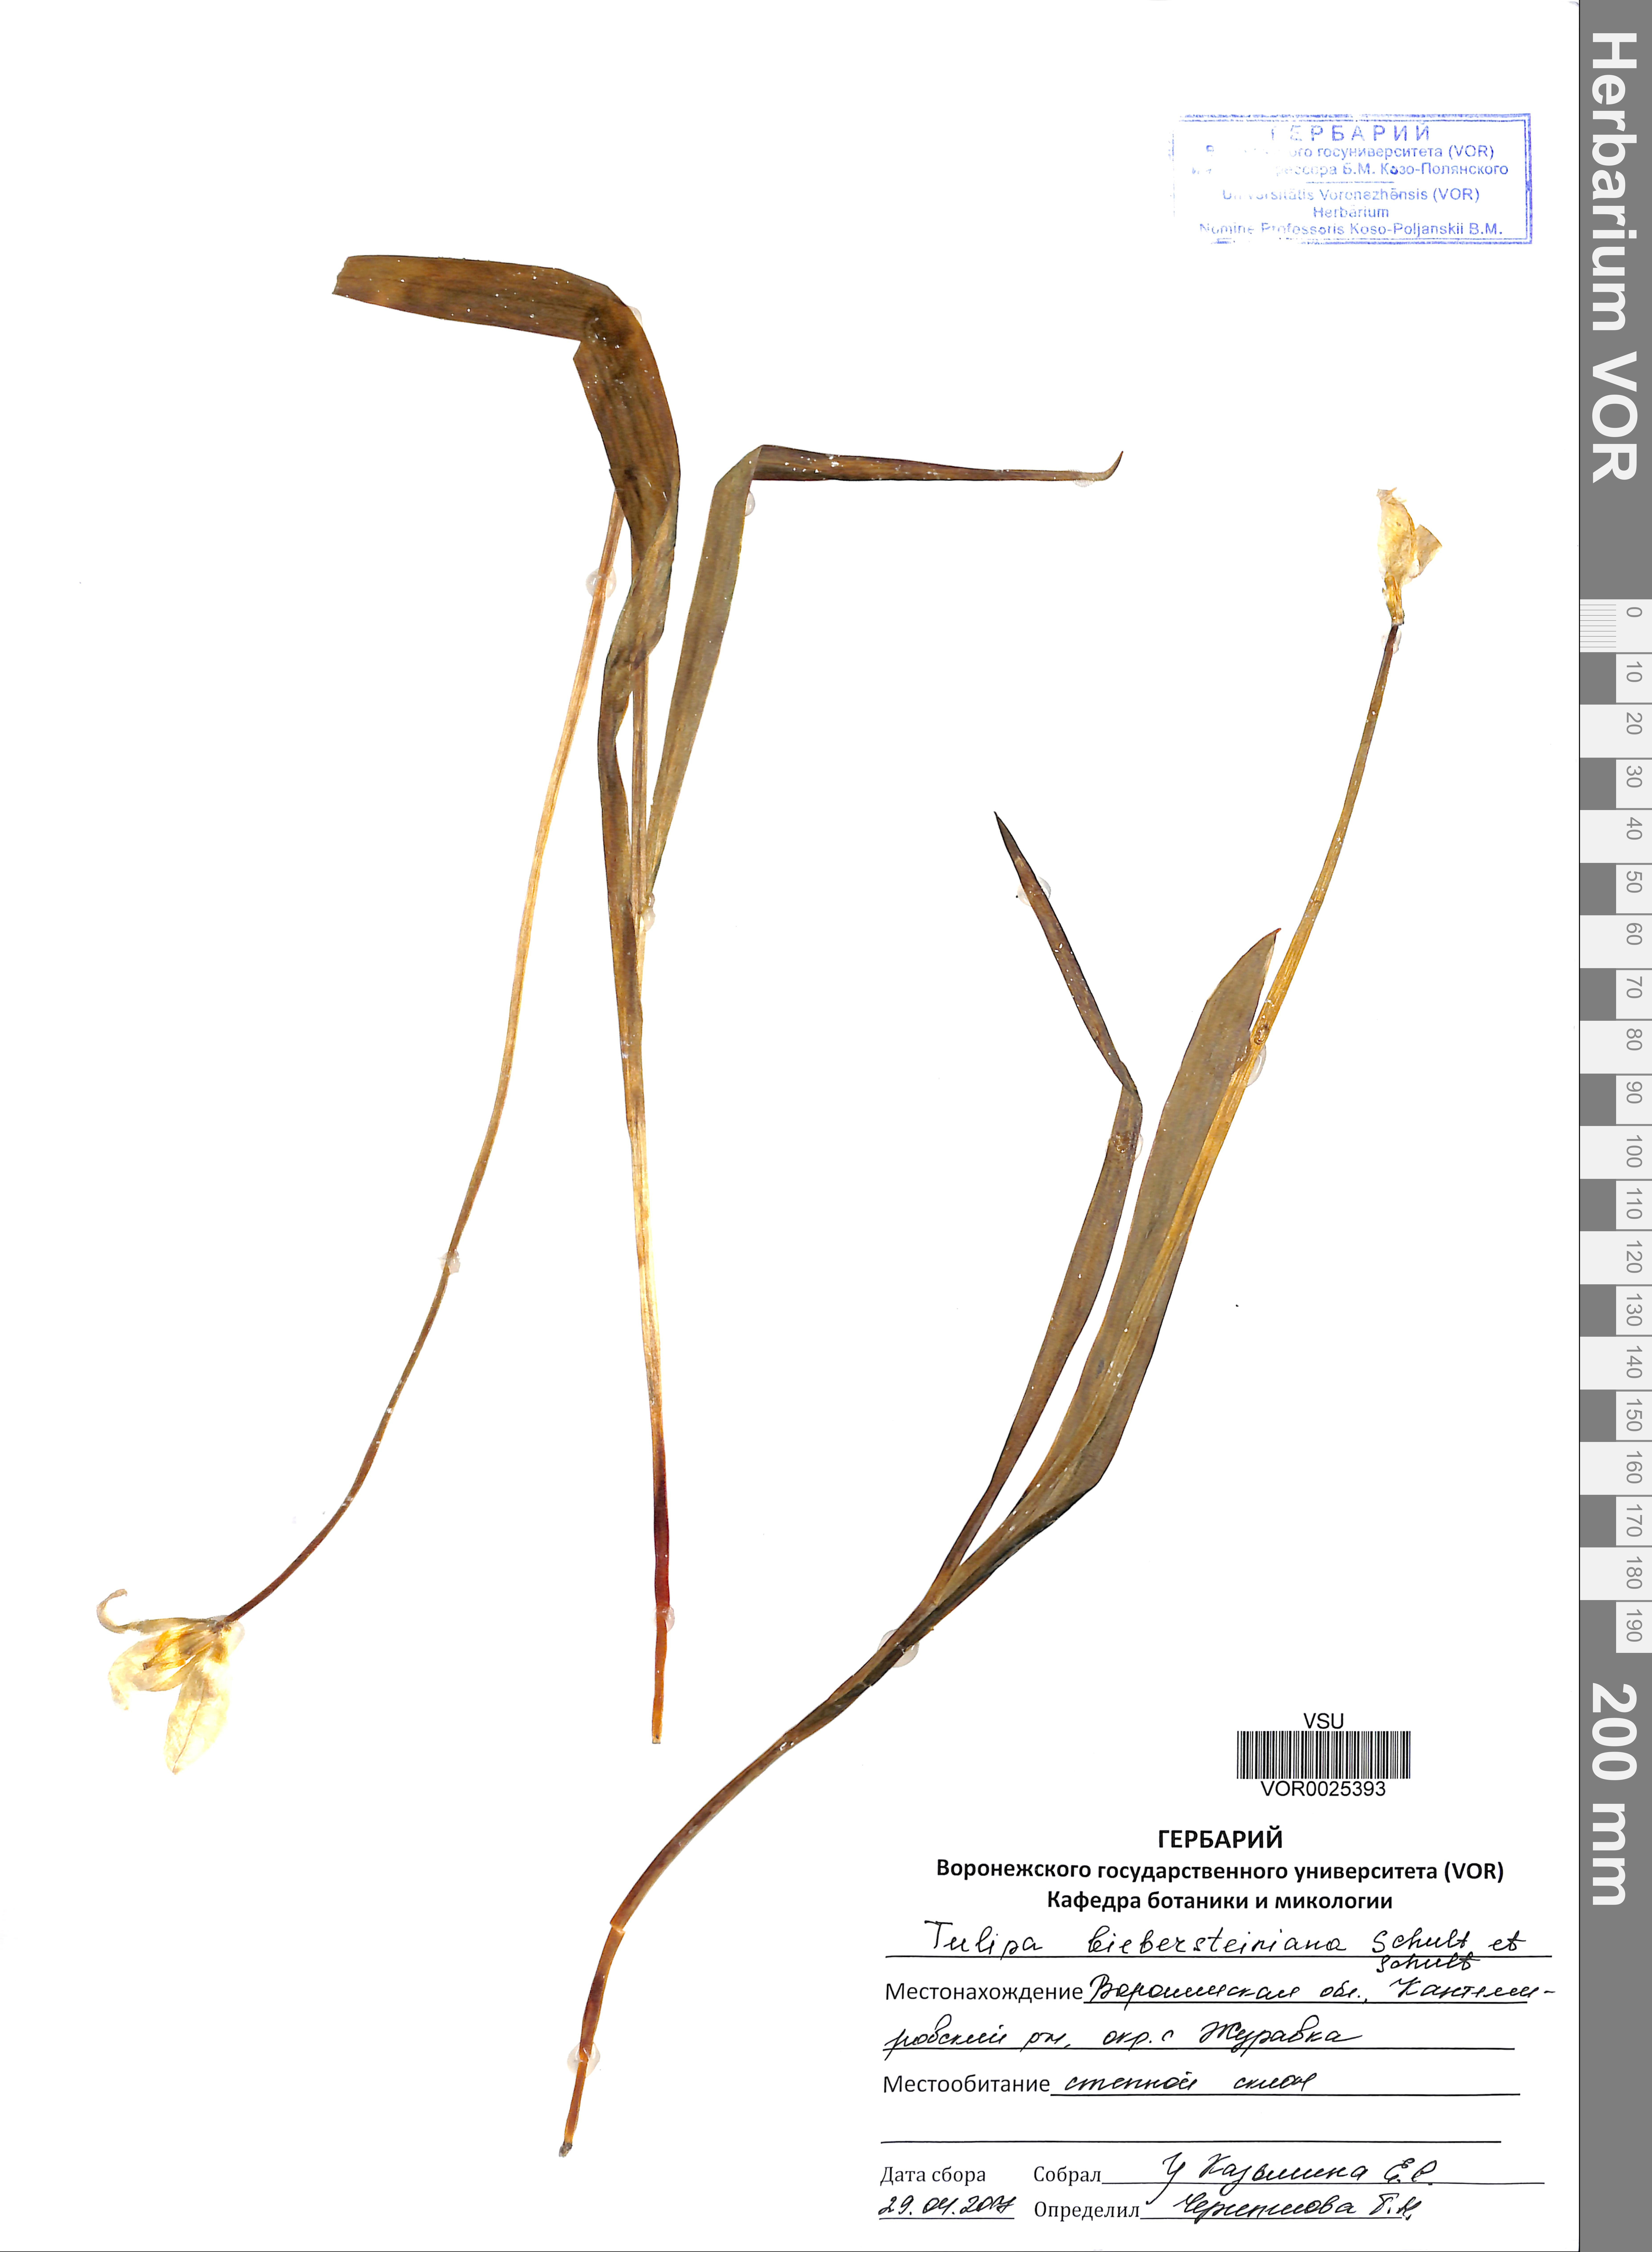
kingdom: Plantae
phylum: Tracheophyta
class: Liliopsida
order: Liliales
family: Liliaceae
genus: Tulipa
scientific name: Tulipa sylvestris
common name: Wild tulip
